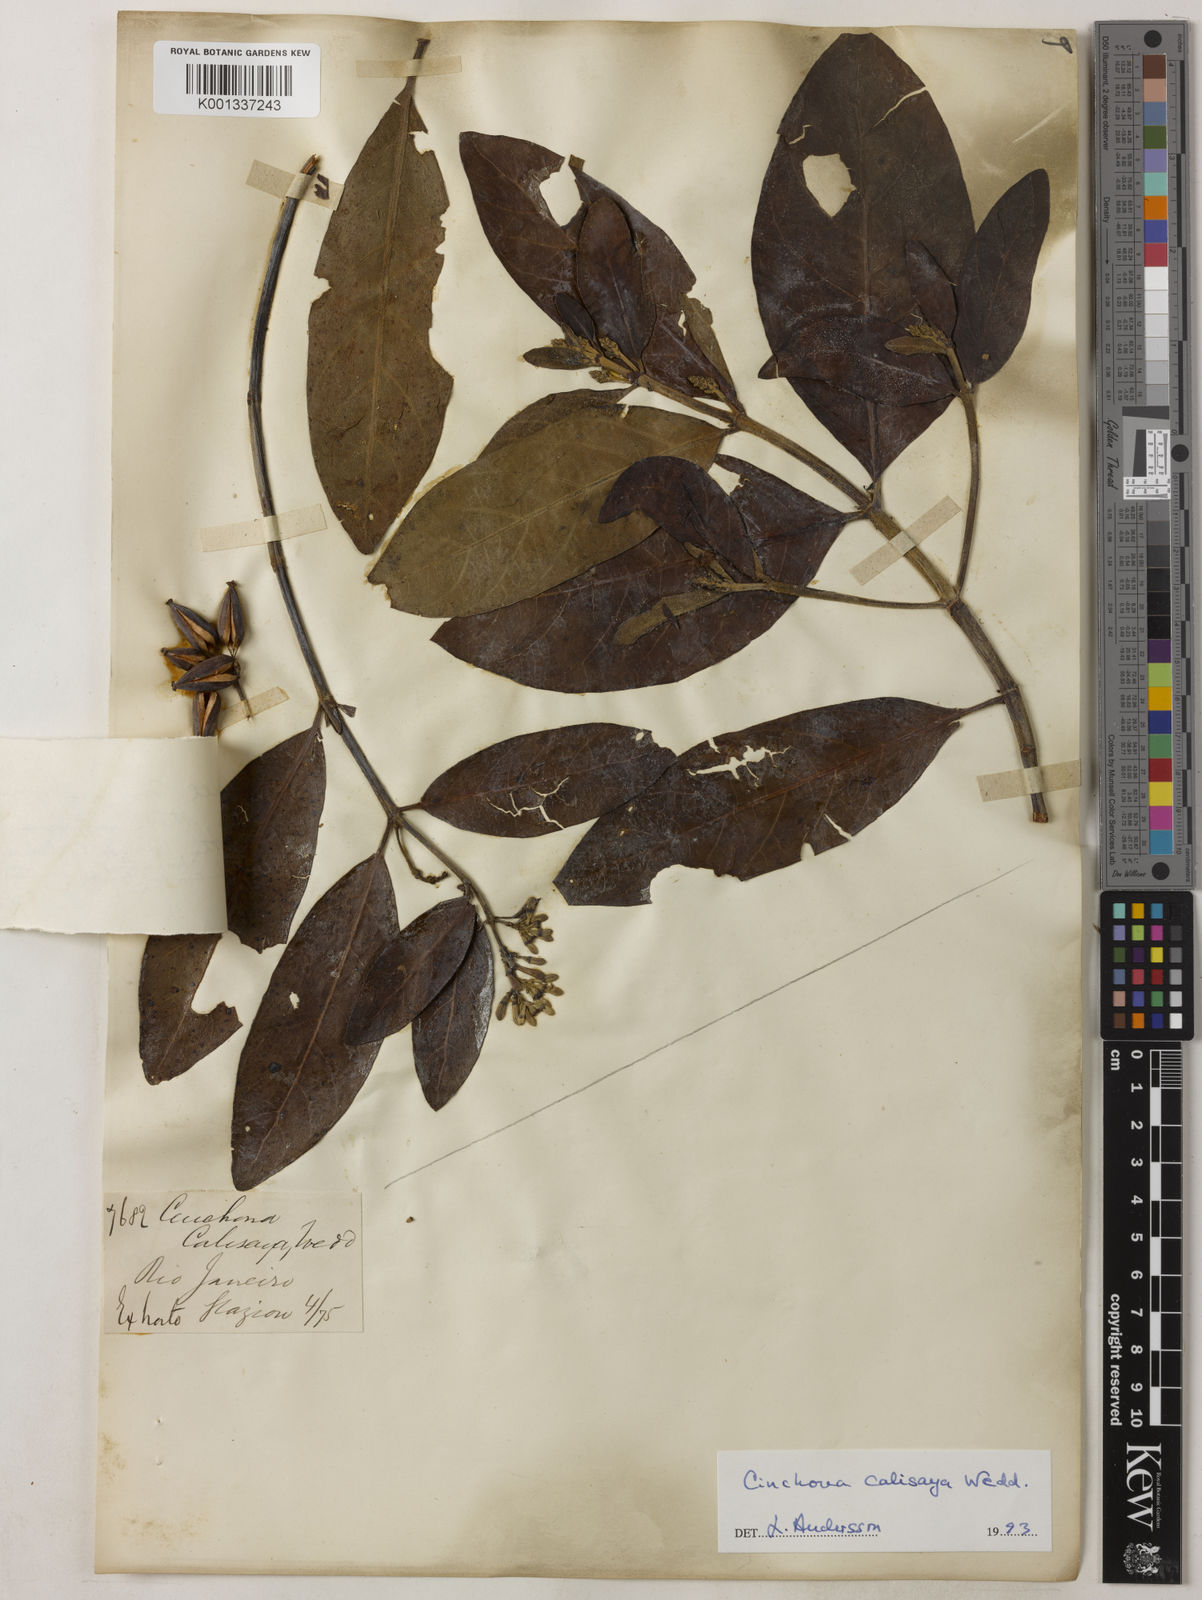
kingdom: Plantae
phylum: Tracheophyta
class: Magnoliopsida
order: Gentianales
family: Rubiaceae
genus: Cinchona
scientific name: Cinchona calisaya
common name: Ledgerbark
